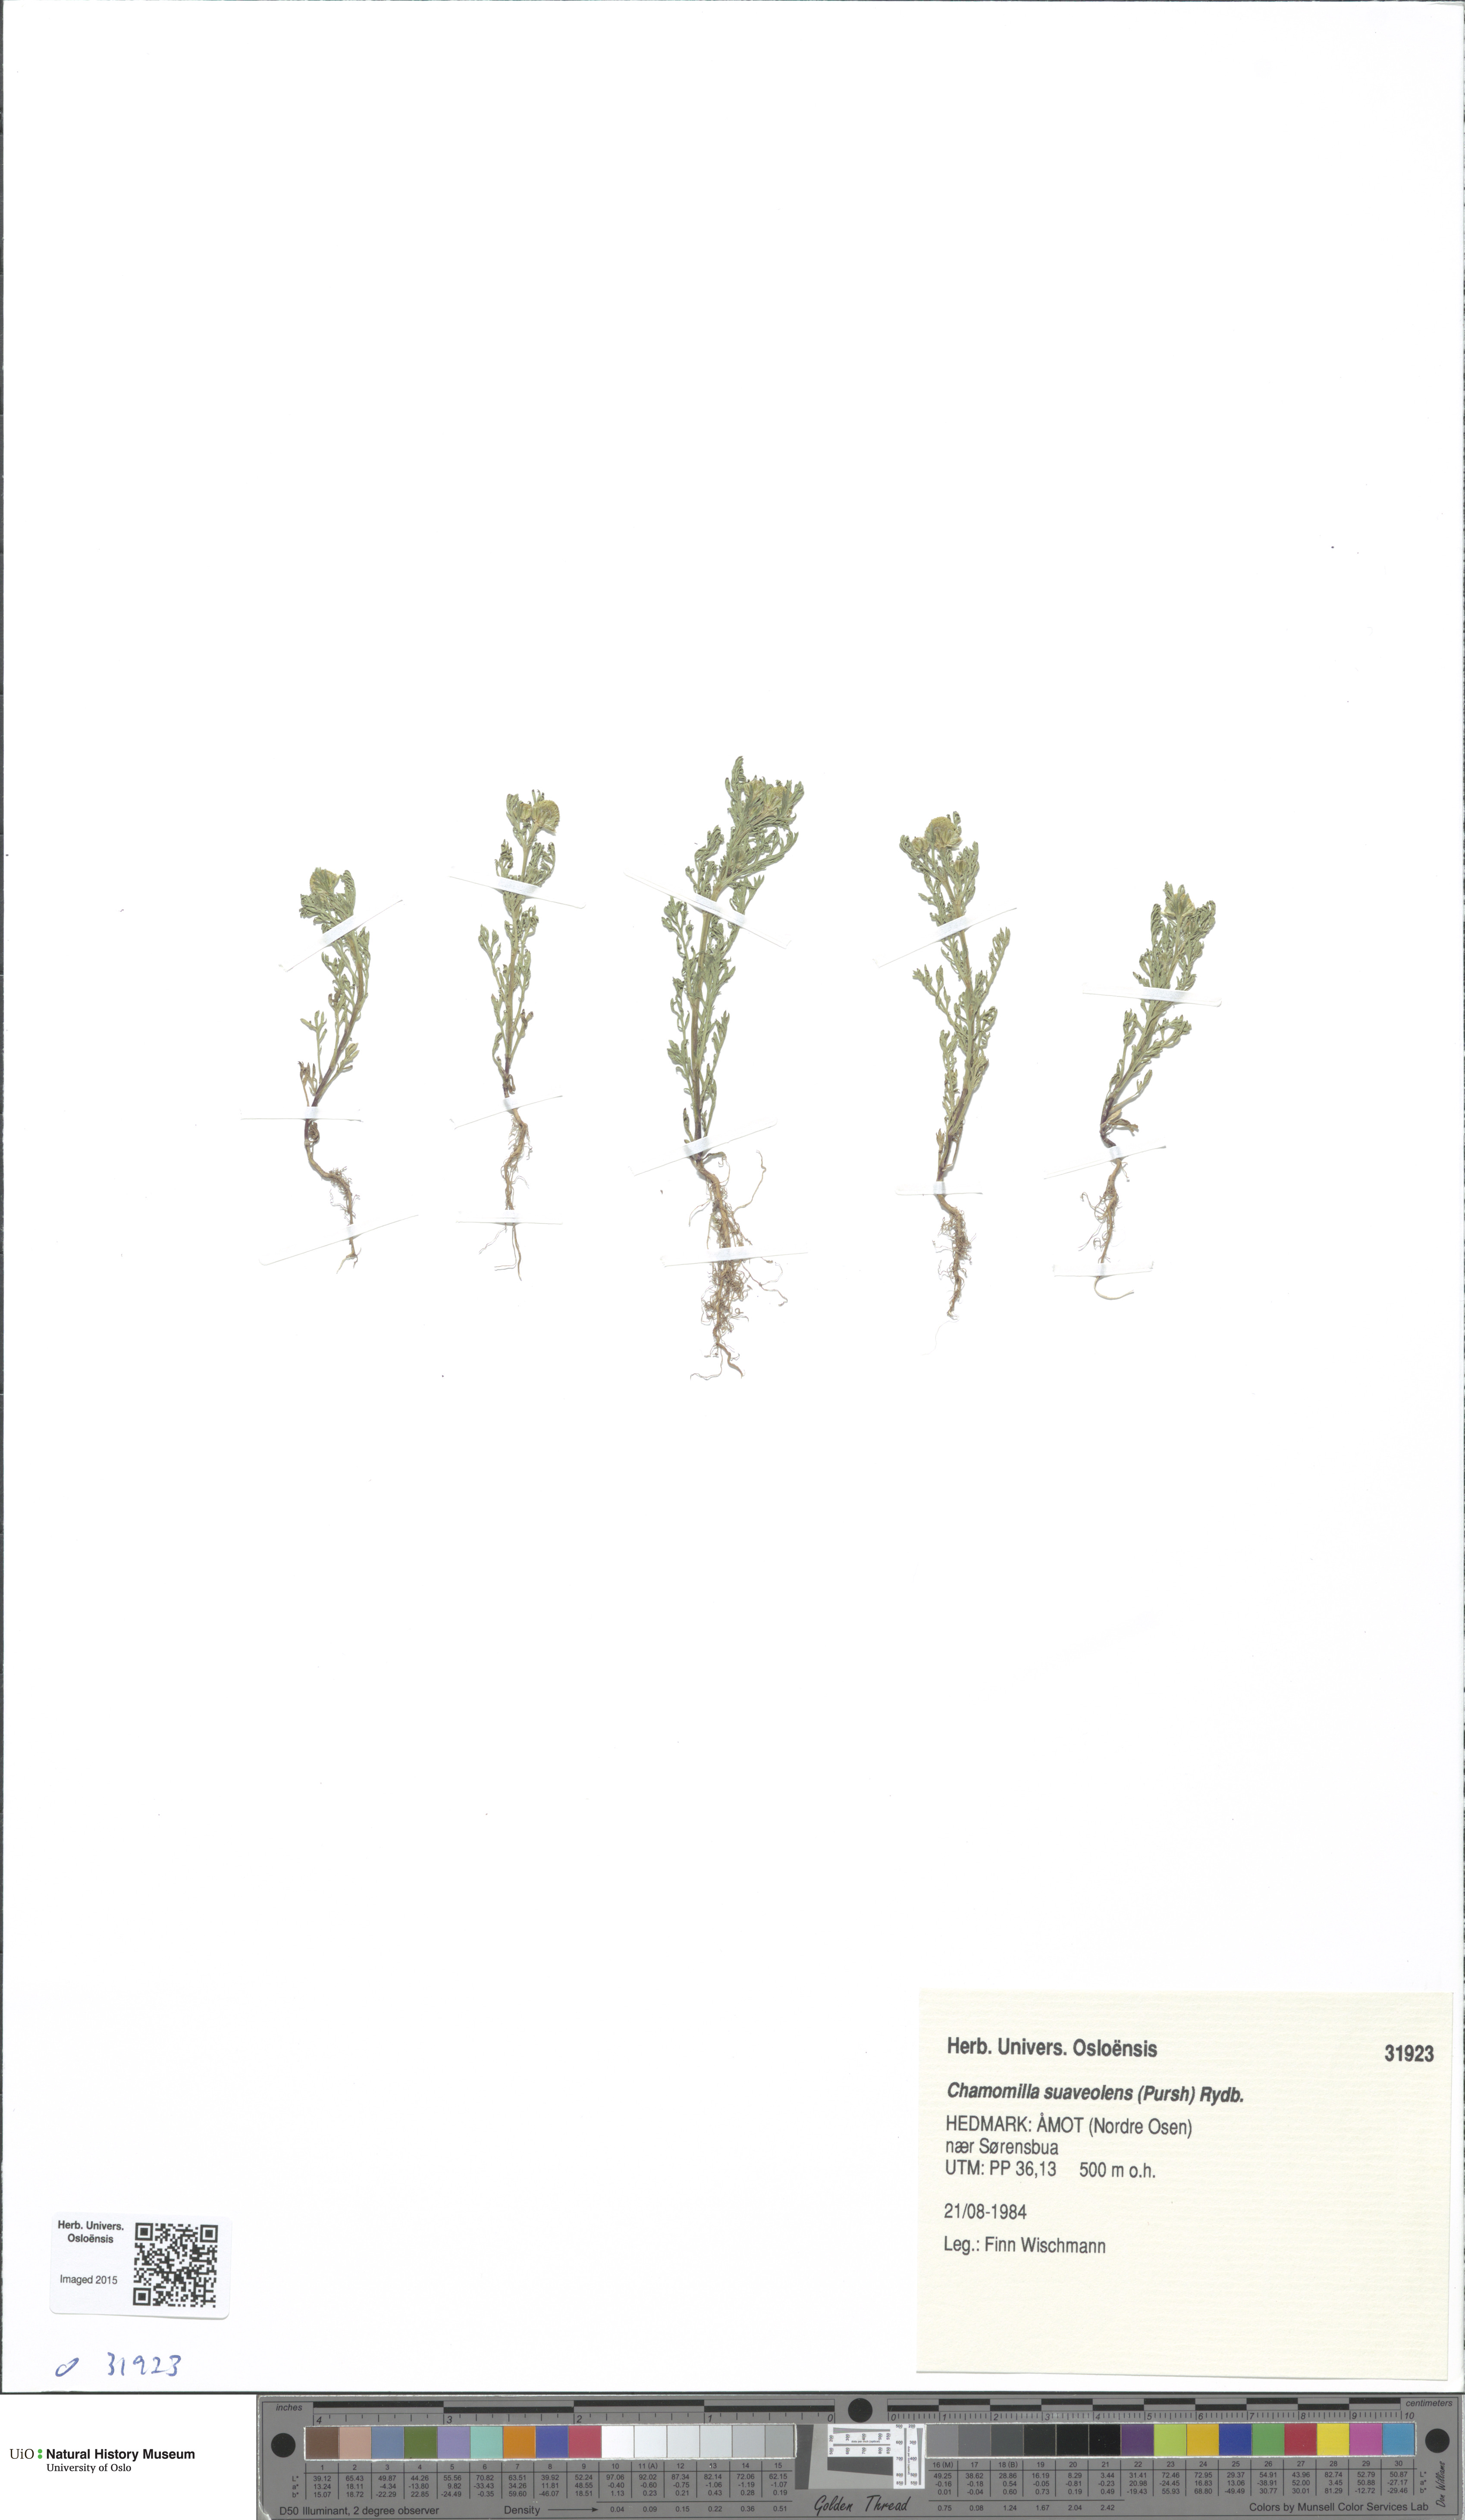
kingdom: Plantae
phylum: Tracheophyta
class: Magnoliopsida
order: Asterales
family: Asteraceae
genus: Matricaria
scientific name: Matricaria discoidea
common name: Disc mayweed
